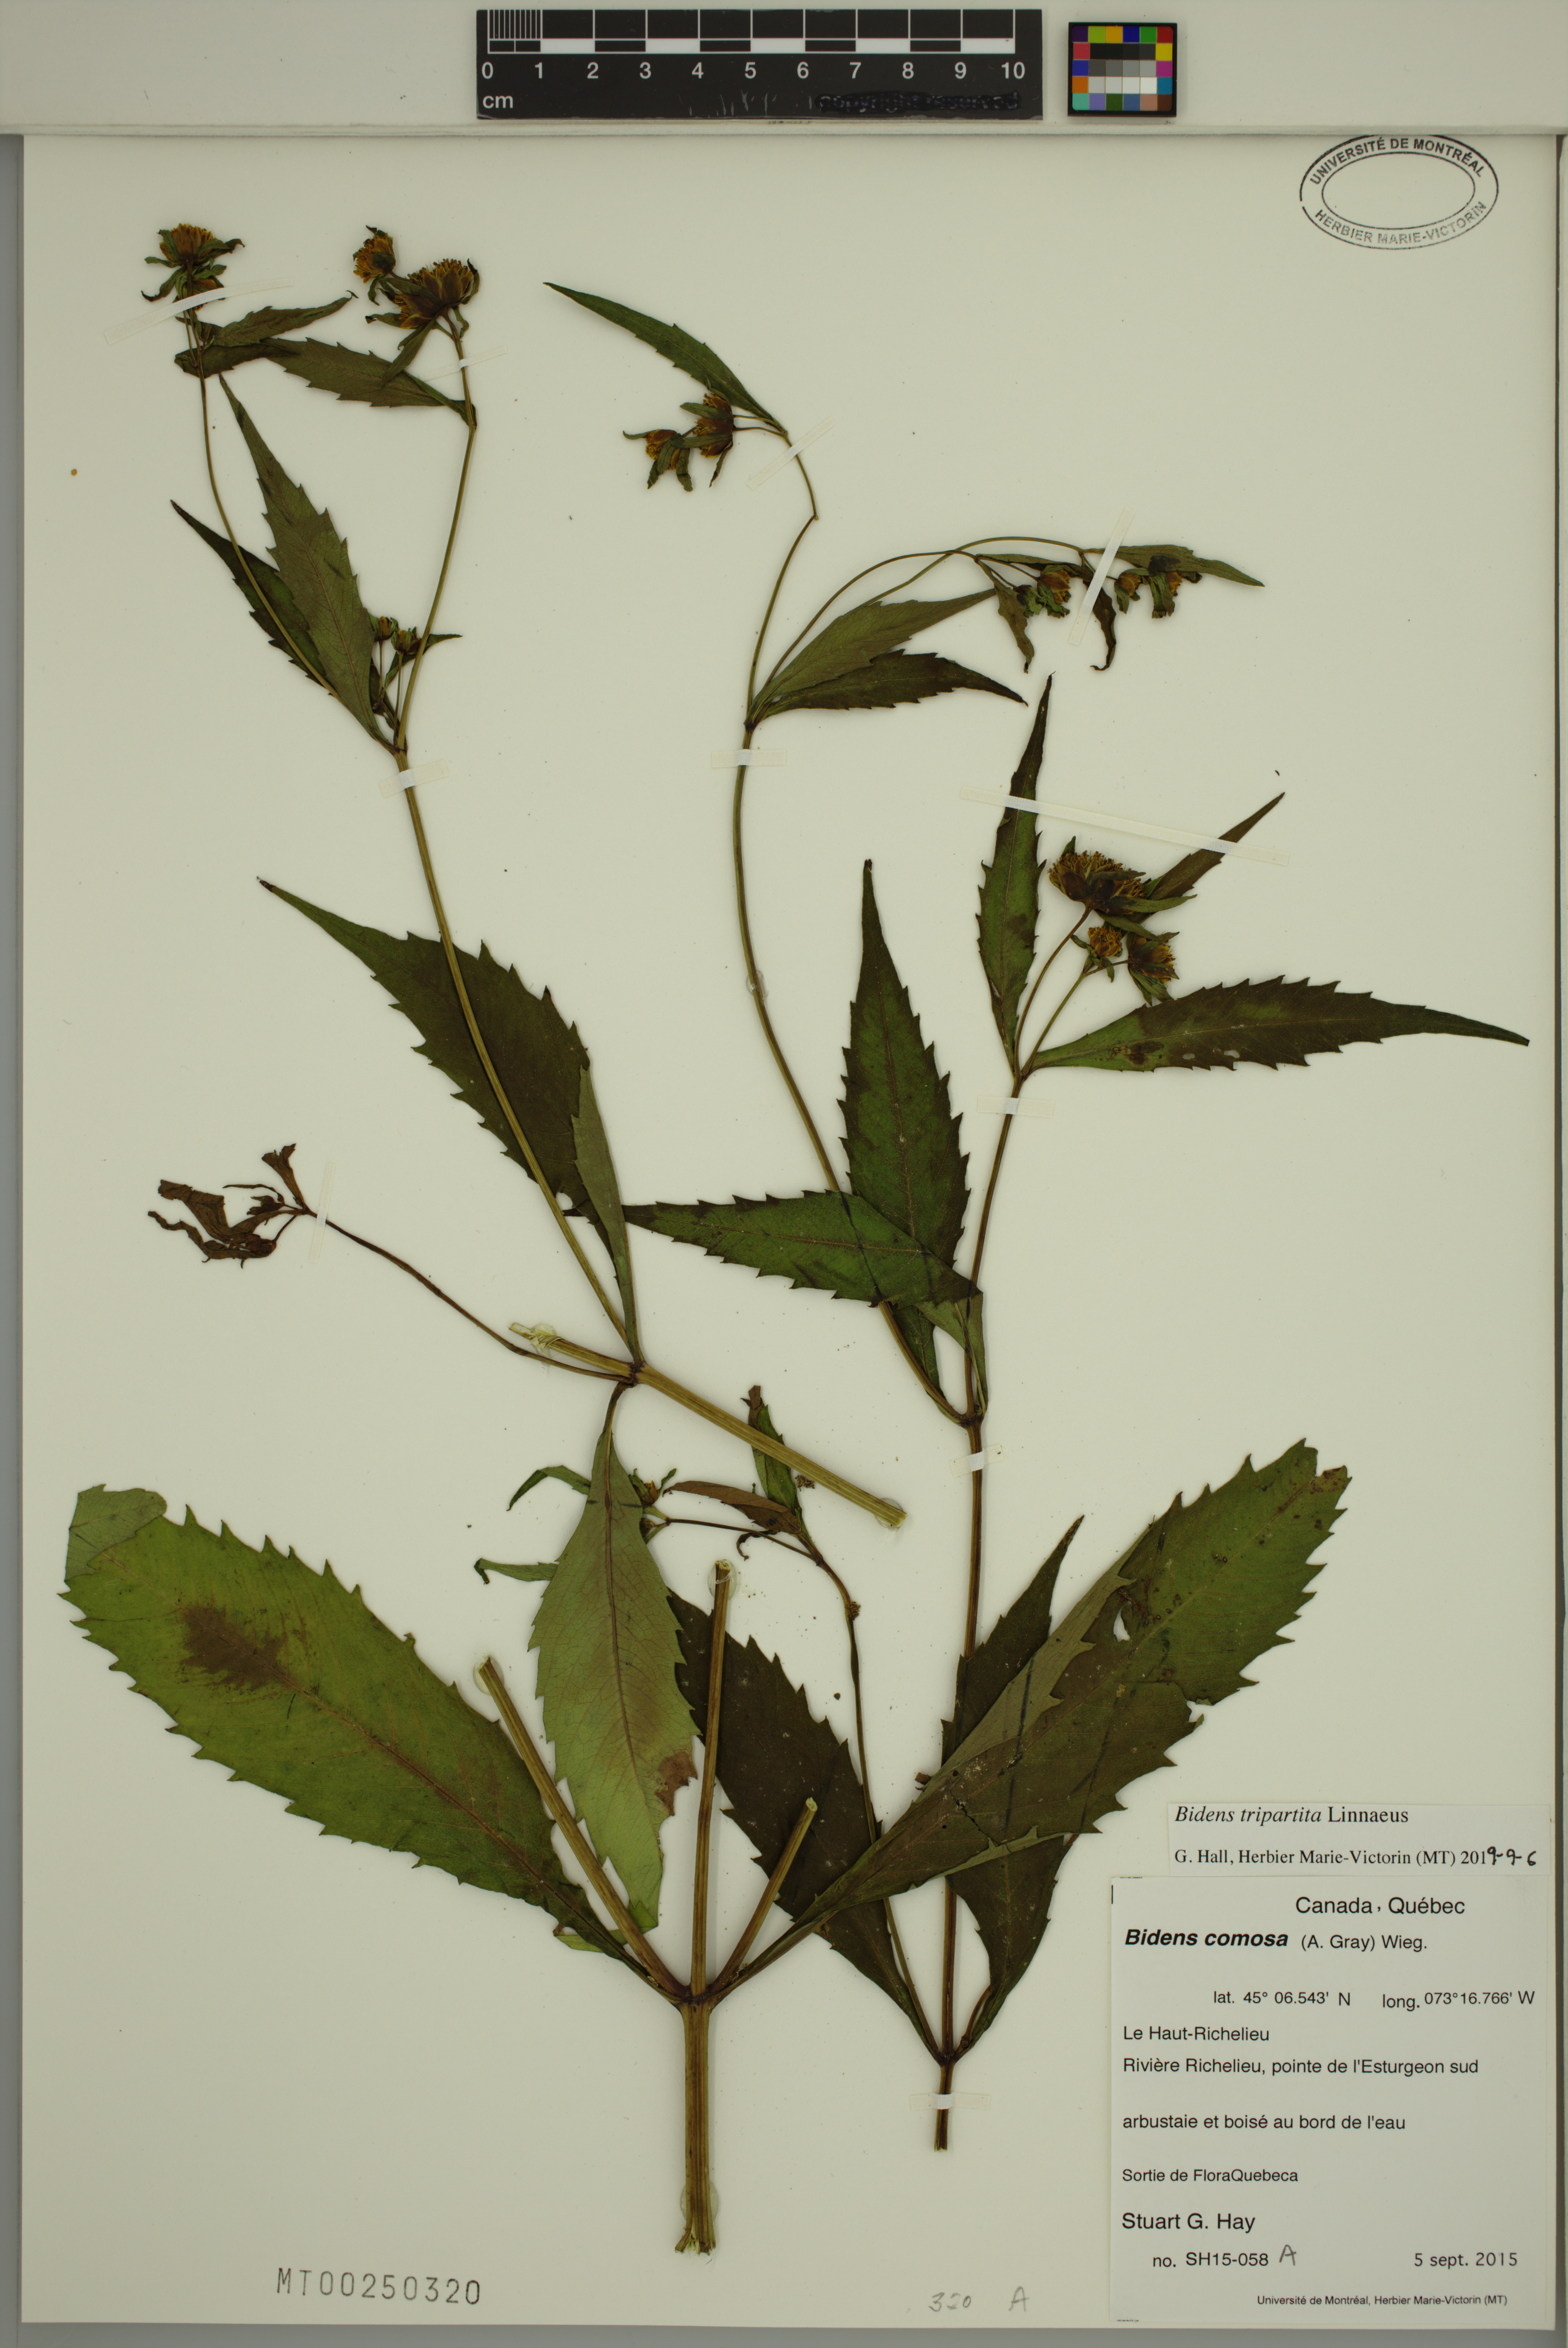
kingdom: Plantae
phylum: Tracheophyta
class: Magnoliopsida
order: Asterales
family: Asteraceae
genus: Bidens
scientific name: Bidens tripartita
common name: Trifid bur-marigold
